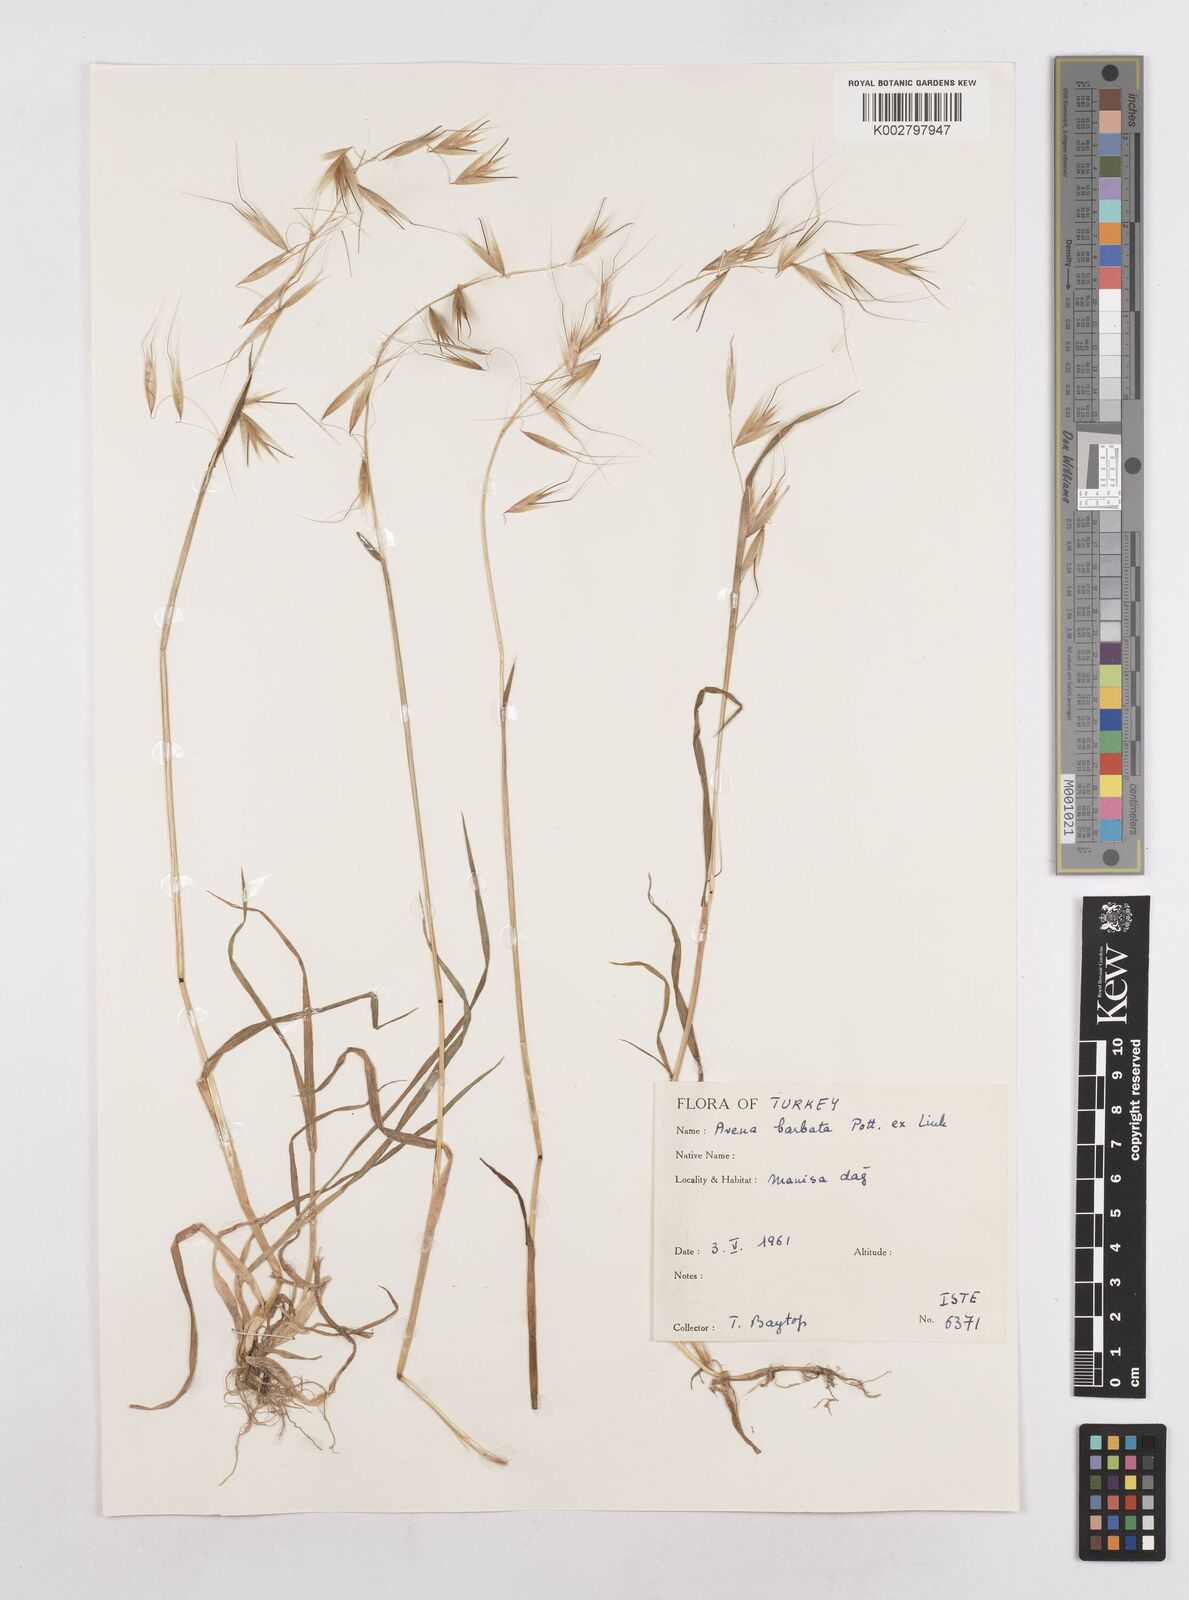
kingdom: Plantae
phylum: Tracheophyta
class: Liliopsida
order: Poales
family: Poaceae
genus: Avena
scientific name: Avena
